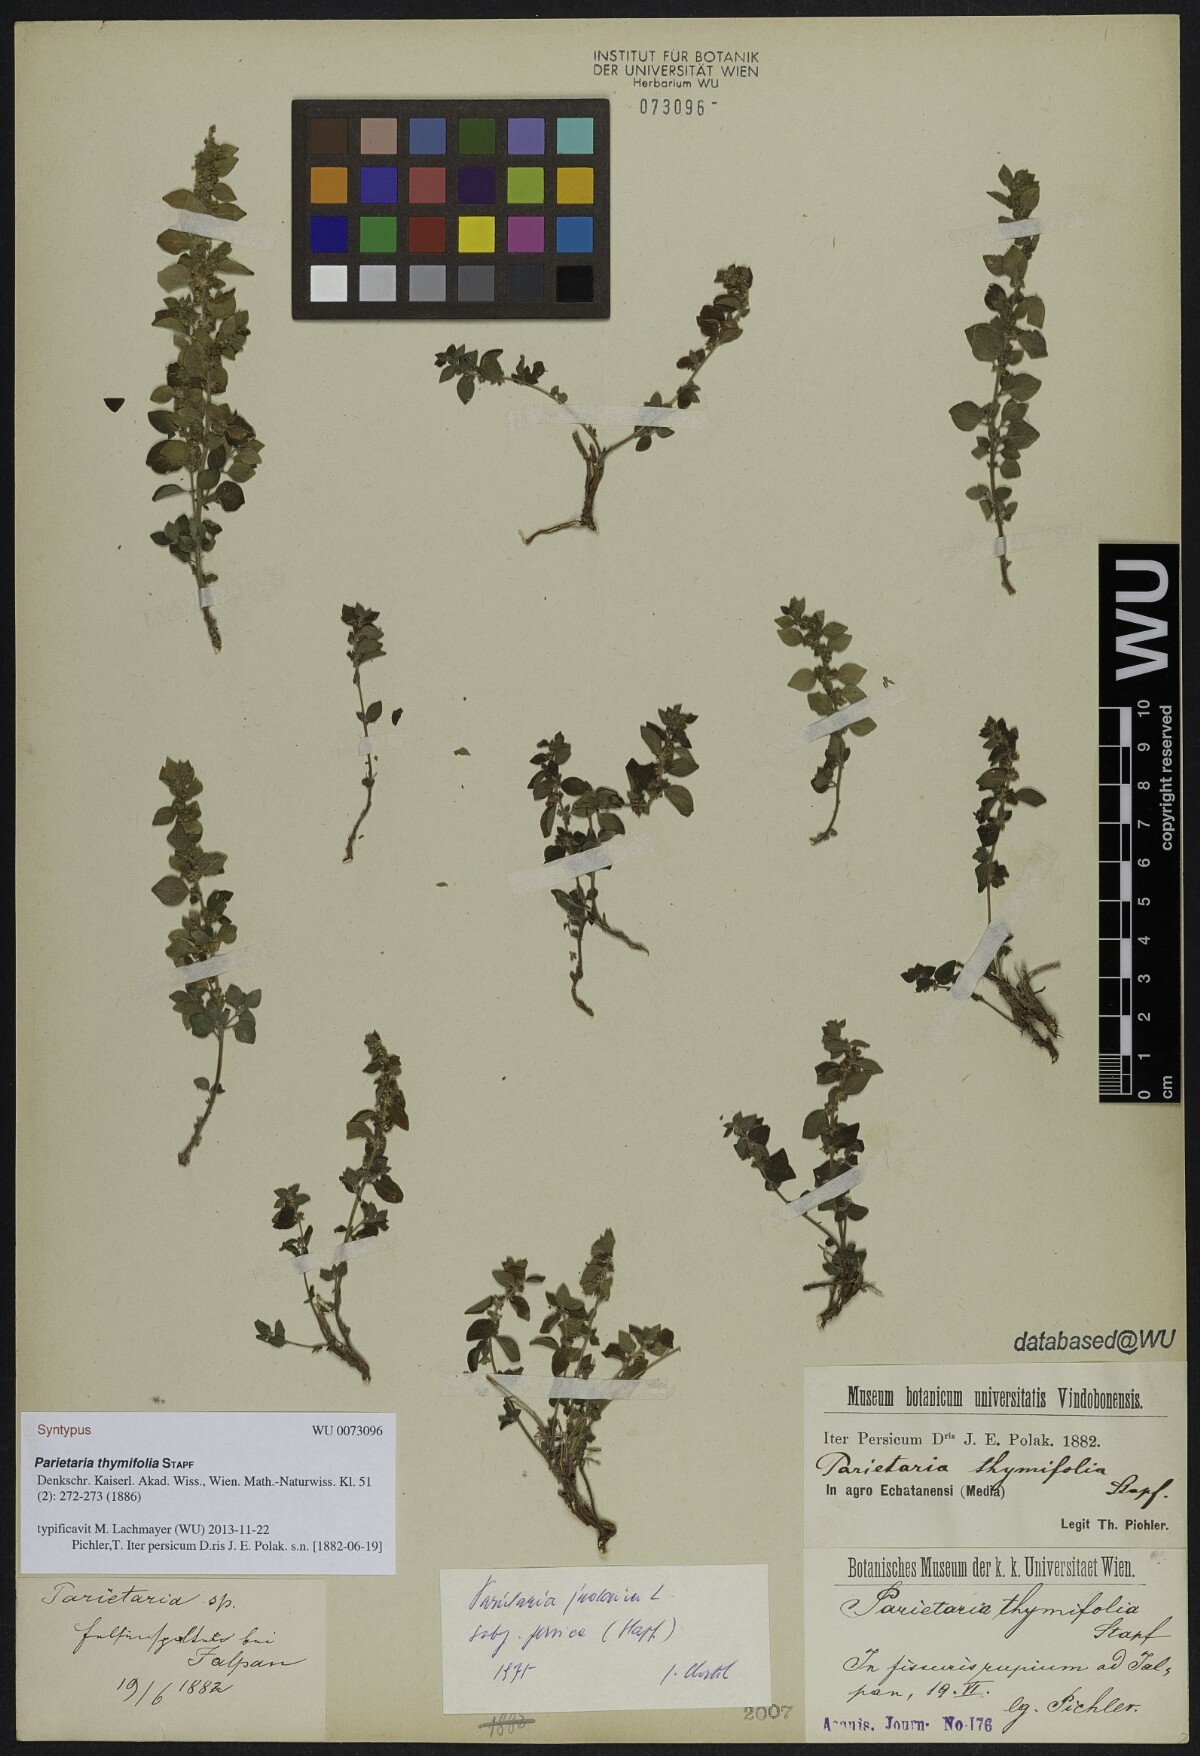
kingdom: Plantae
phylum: Tracheophyta
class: Magnoliopsida
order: Rosales
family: Urticaceae
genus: Parietaria
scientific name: Parietaria judaica
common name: Pellitory-of-the-wall
